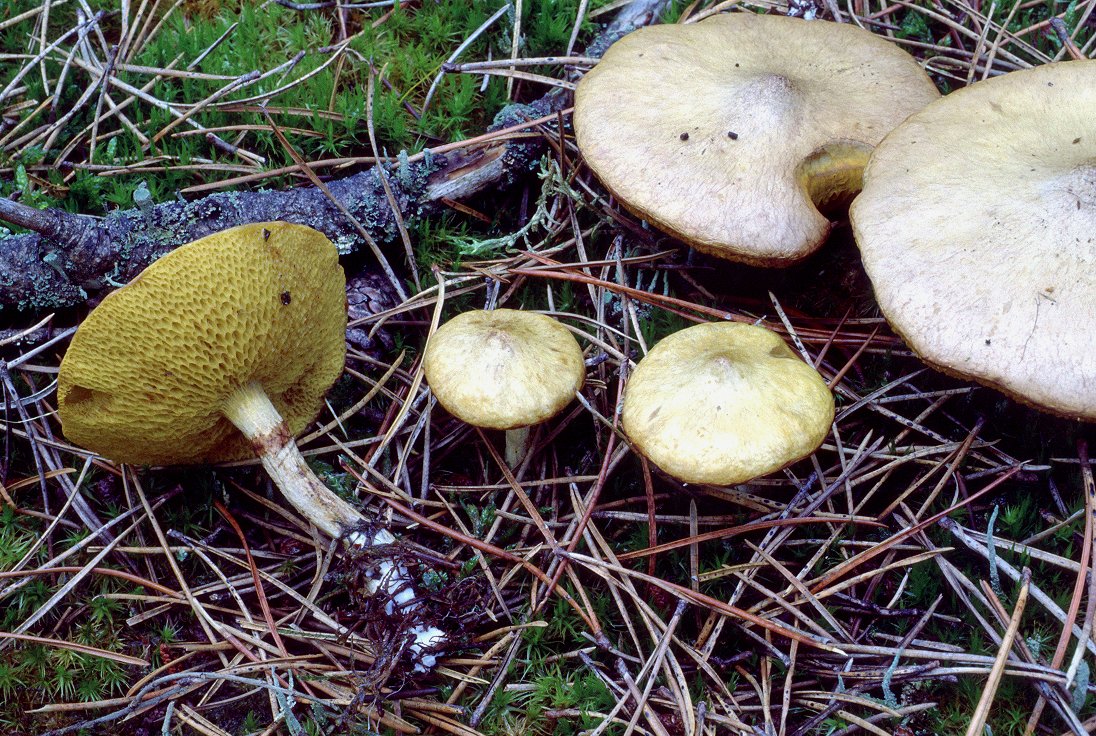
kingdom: Fungi
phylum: Basidiomycota
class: Agaricomycetes
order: Boletales
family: Suillaceae
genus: Suillus
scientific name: Suillus flavidus
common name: mose-slimrørhat
